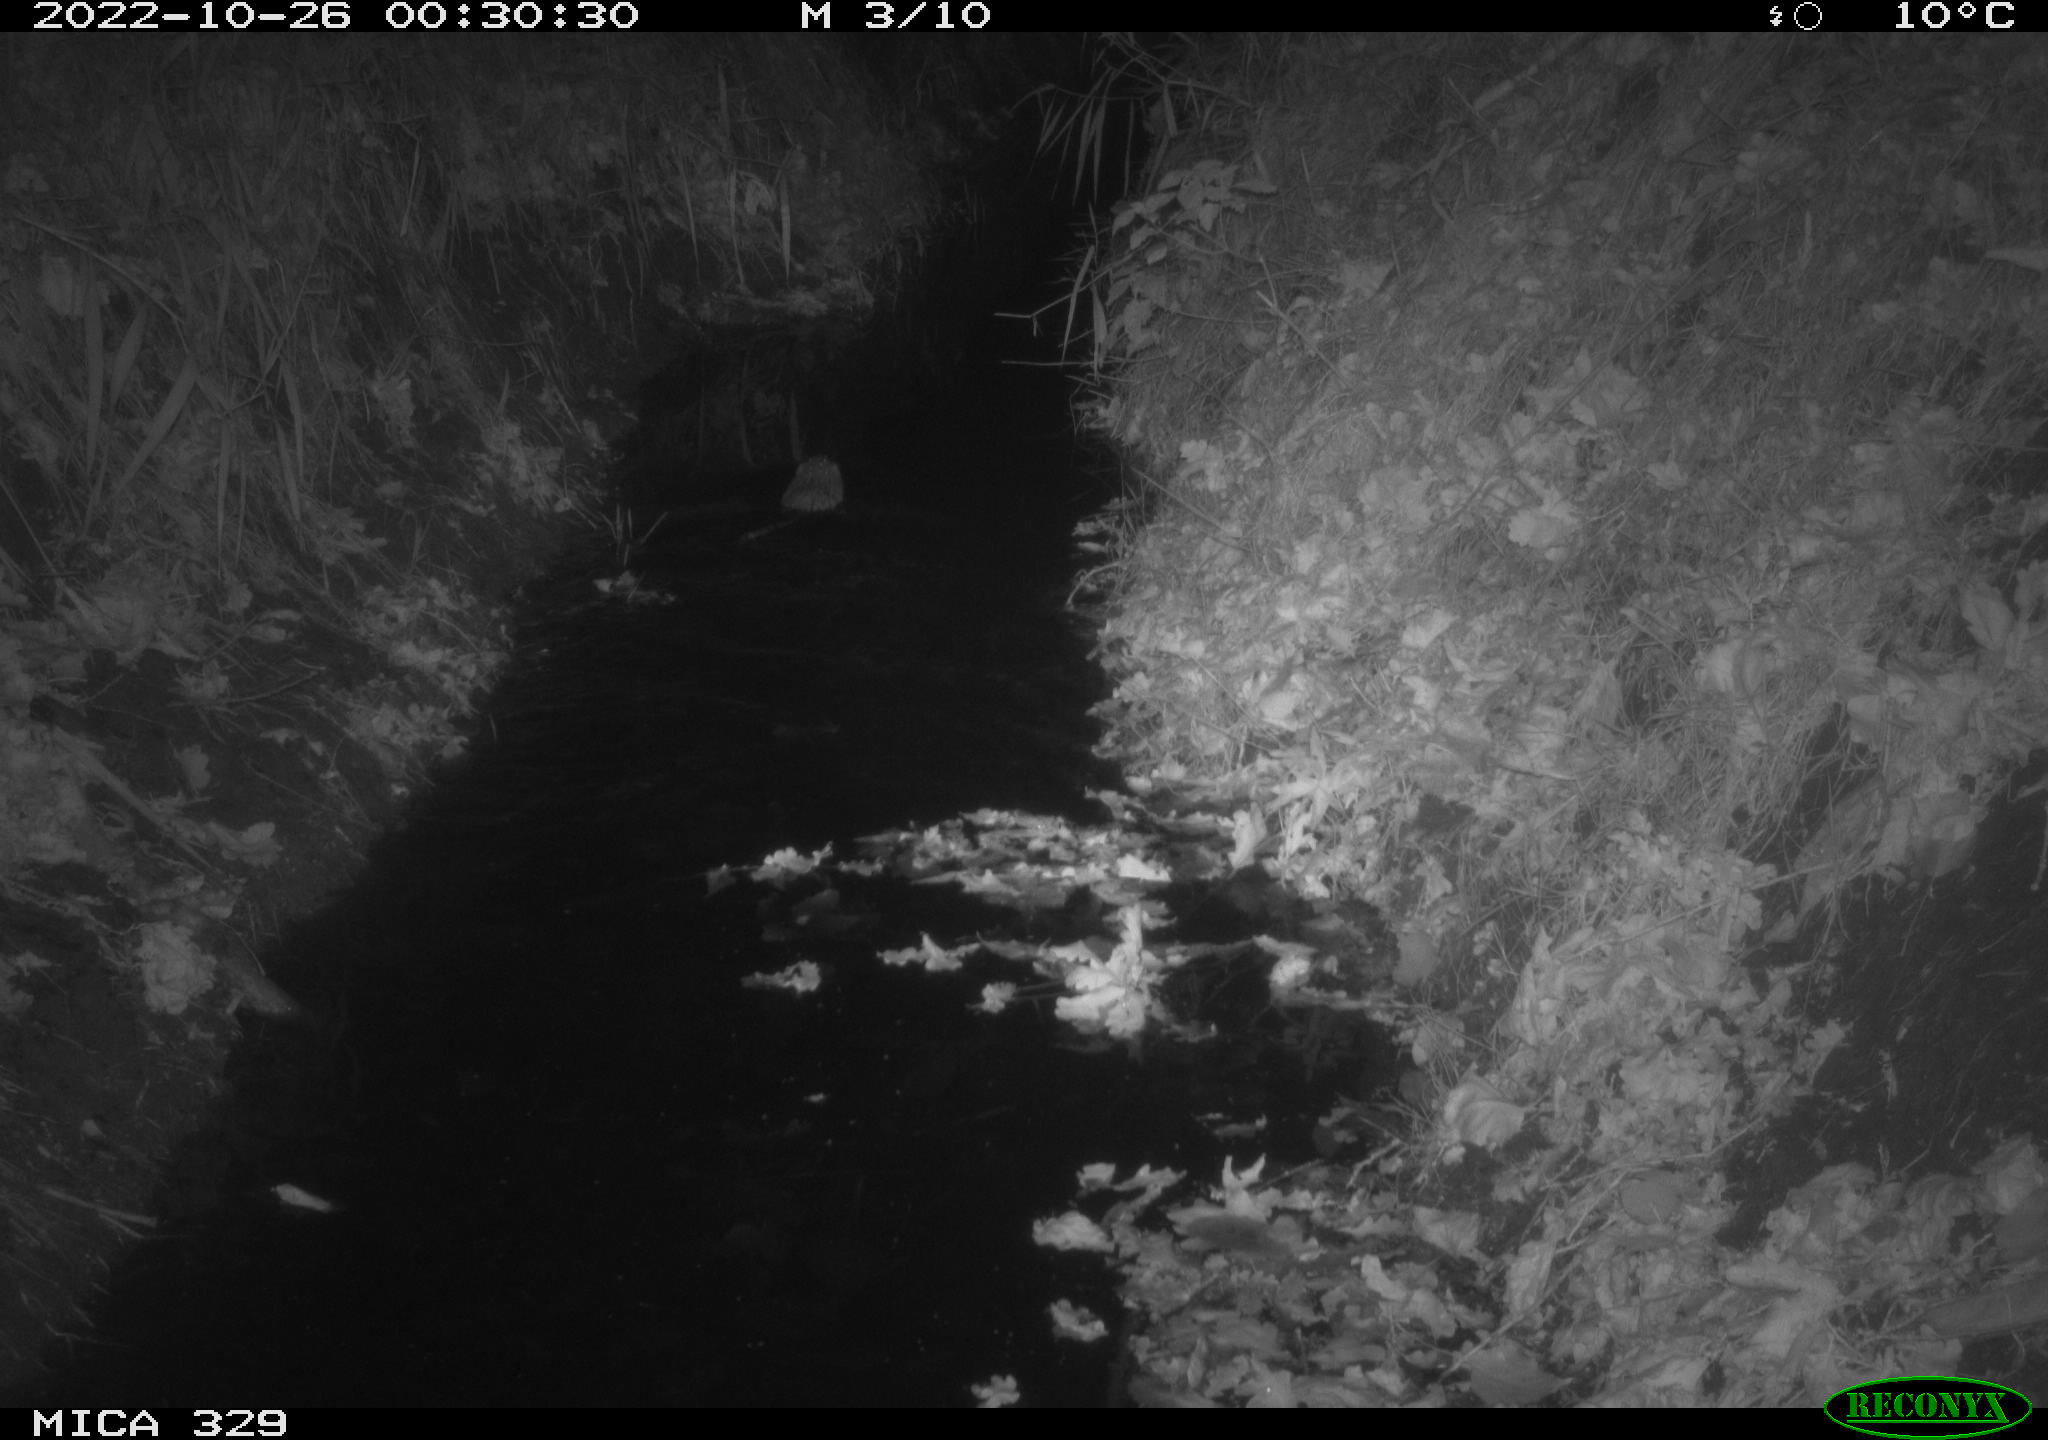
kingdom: Animalia
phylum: Chordata
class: Mammalia
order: Rodentia
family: Cricetidae
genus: Ondatra
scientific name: Ondatra zibethicus
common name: Muskrat
